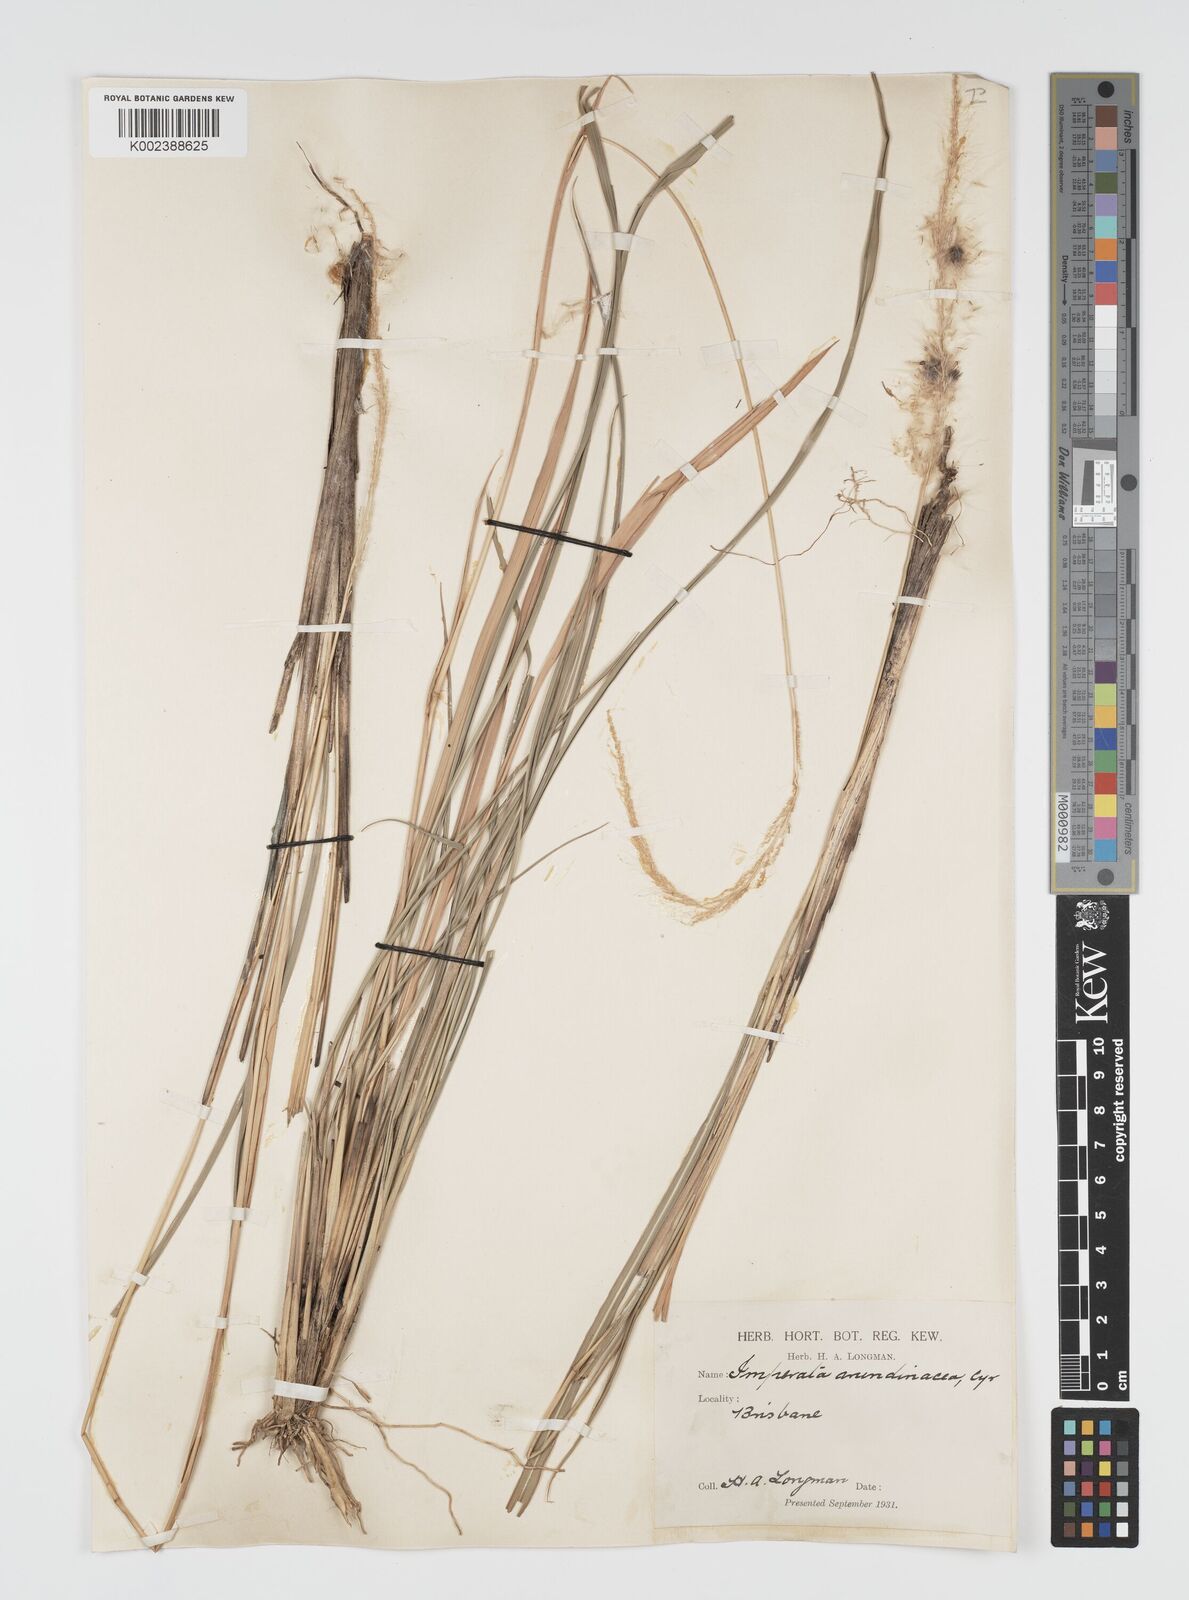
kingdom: Plantae
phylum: Tracheophyta
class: Liliopsida
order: Poales
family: Poaceae
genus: Imperata
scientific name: Imperata cylindrica
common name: Cogongrass
